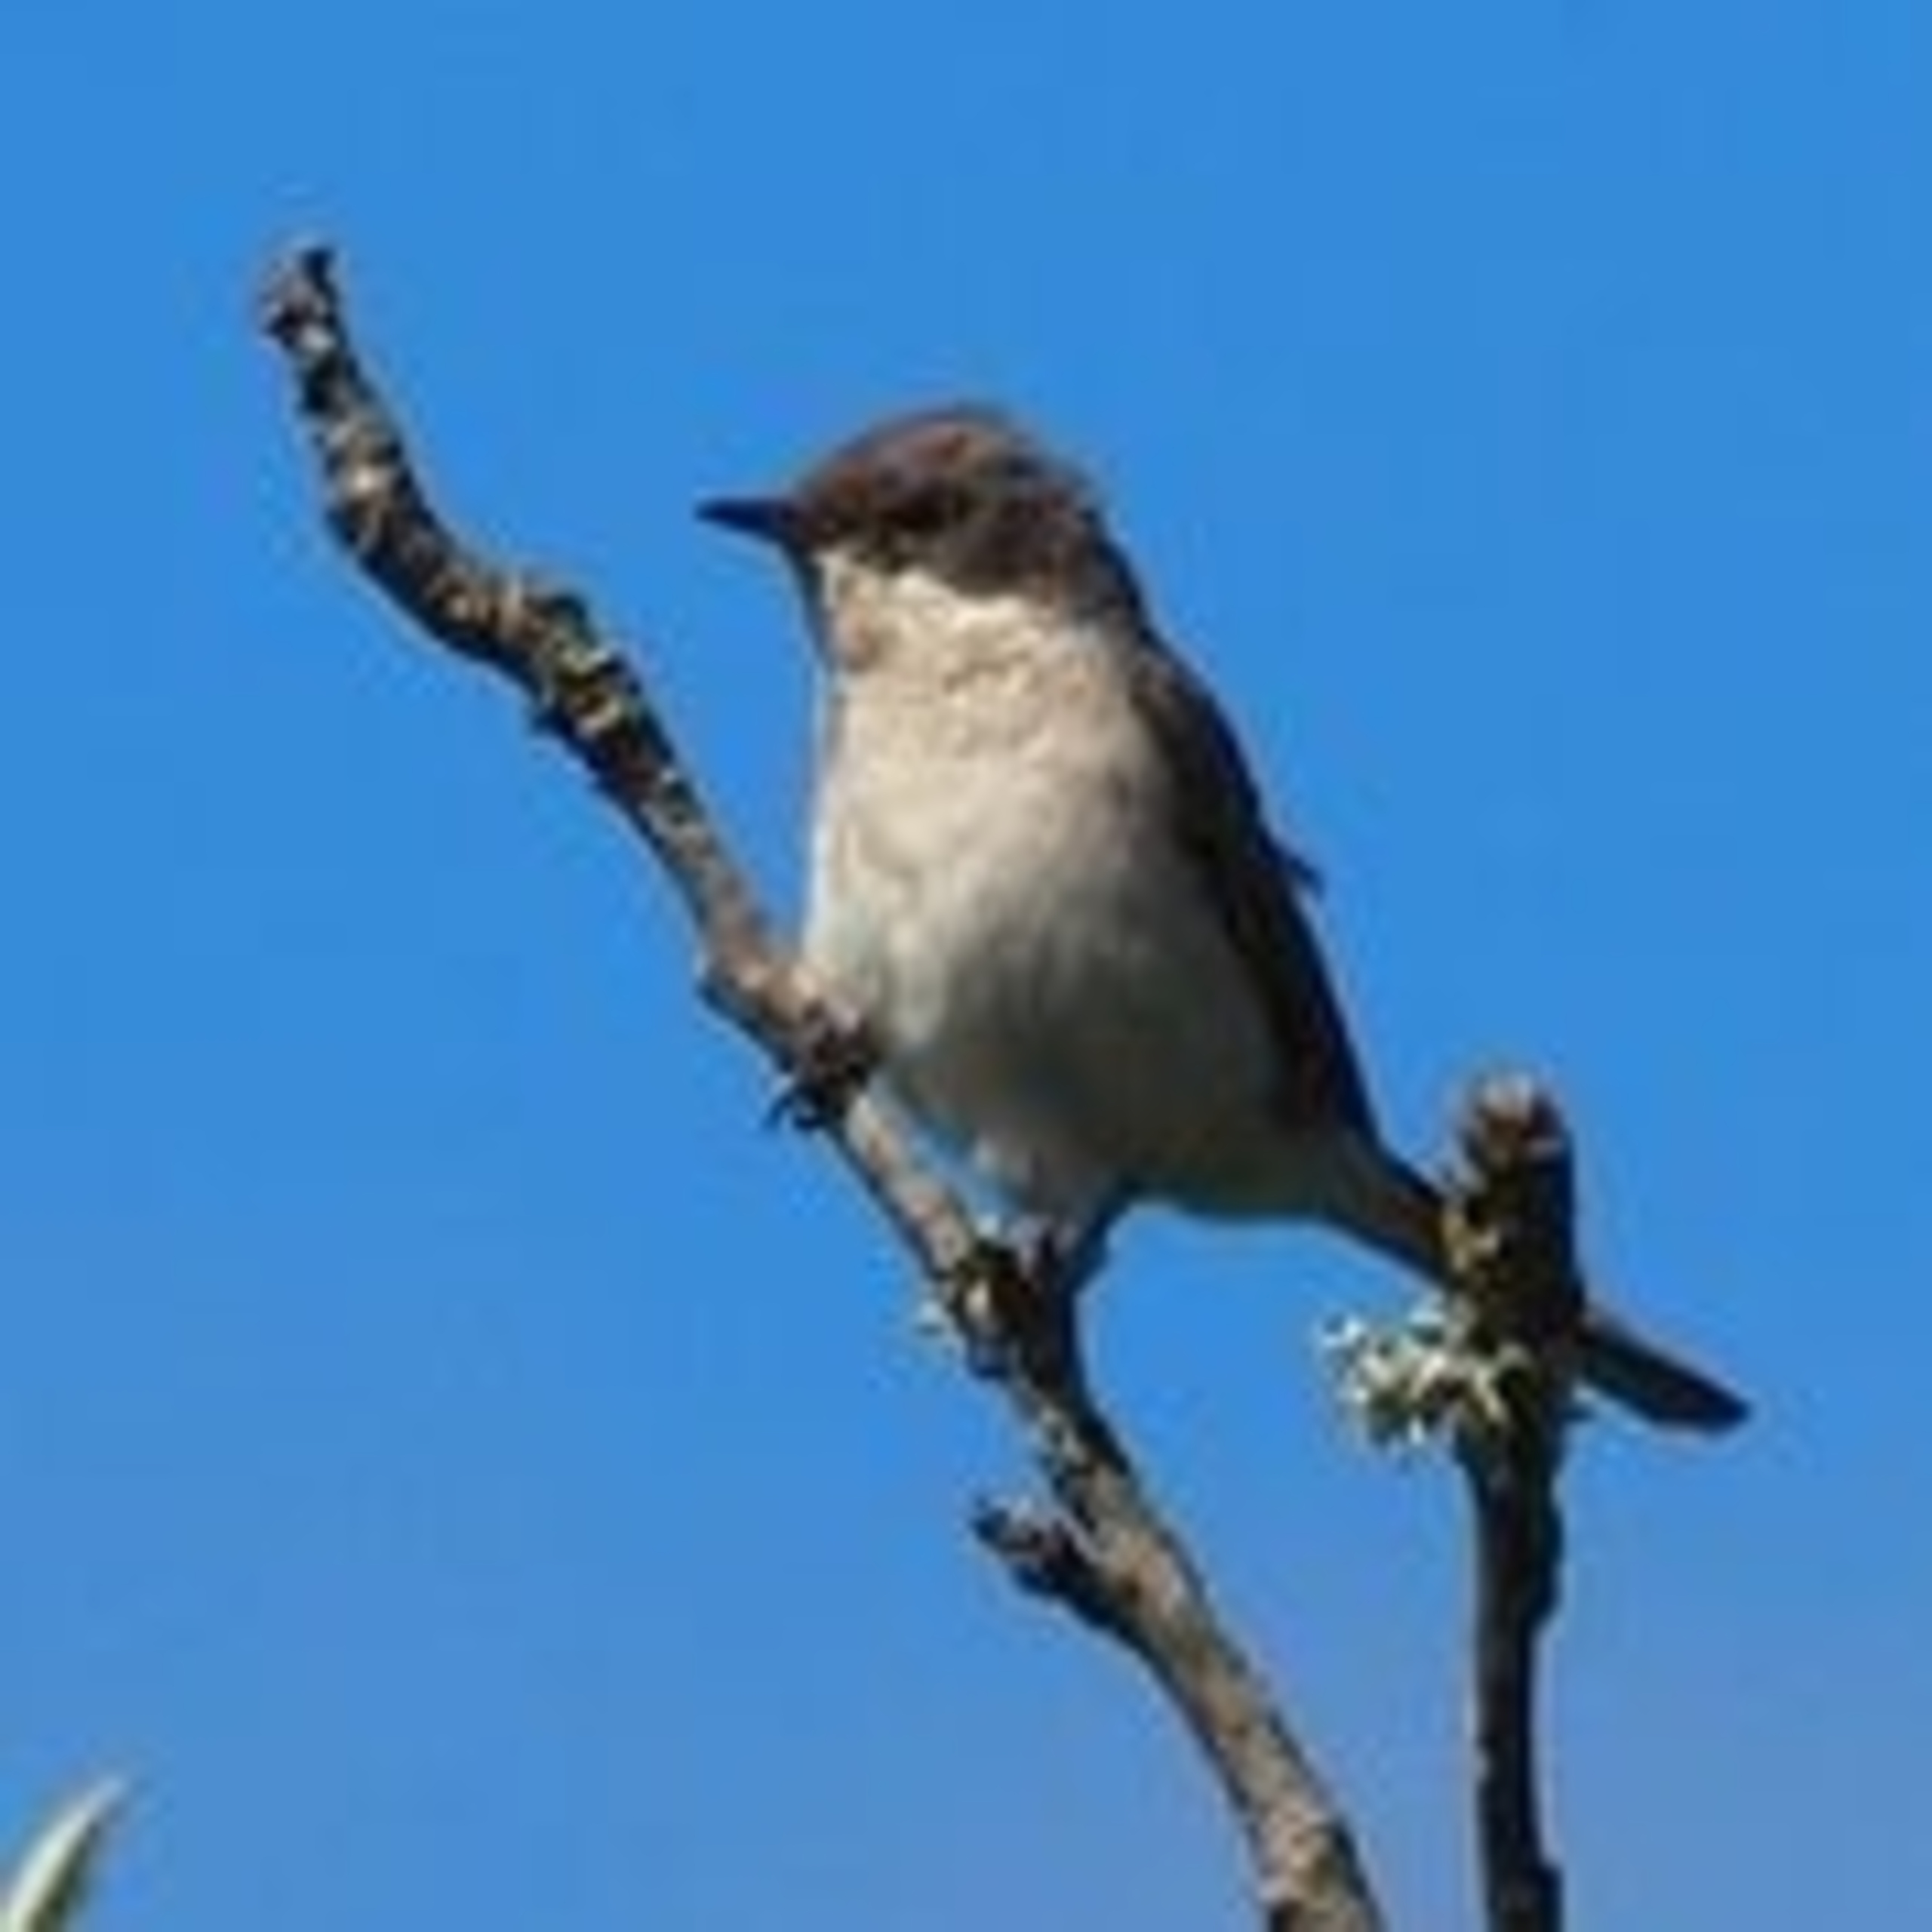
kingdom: Animalia
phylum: Chordata
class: Aves
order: Passeriformes
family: Sylviidae
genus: Sylvia
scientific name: Sylvia curruca
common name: Gærdesanger
